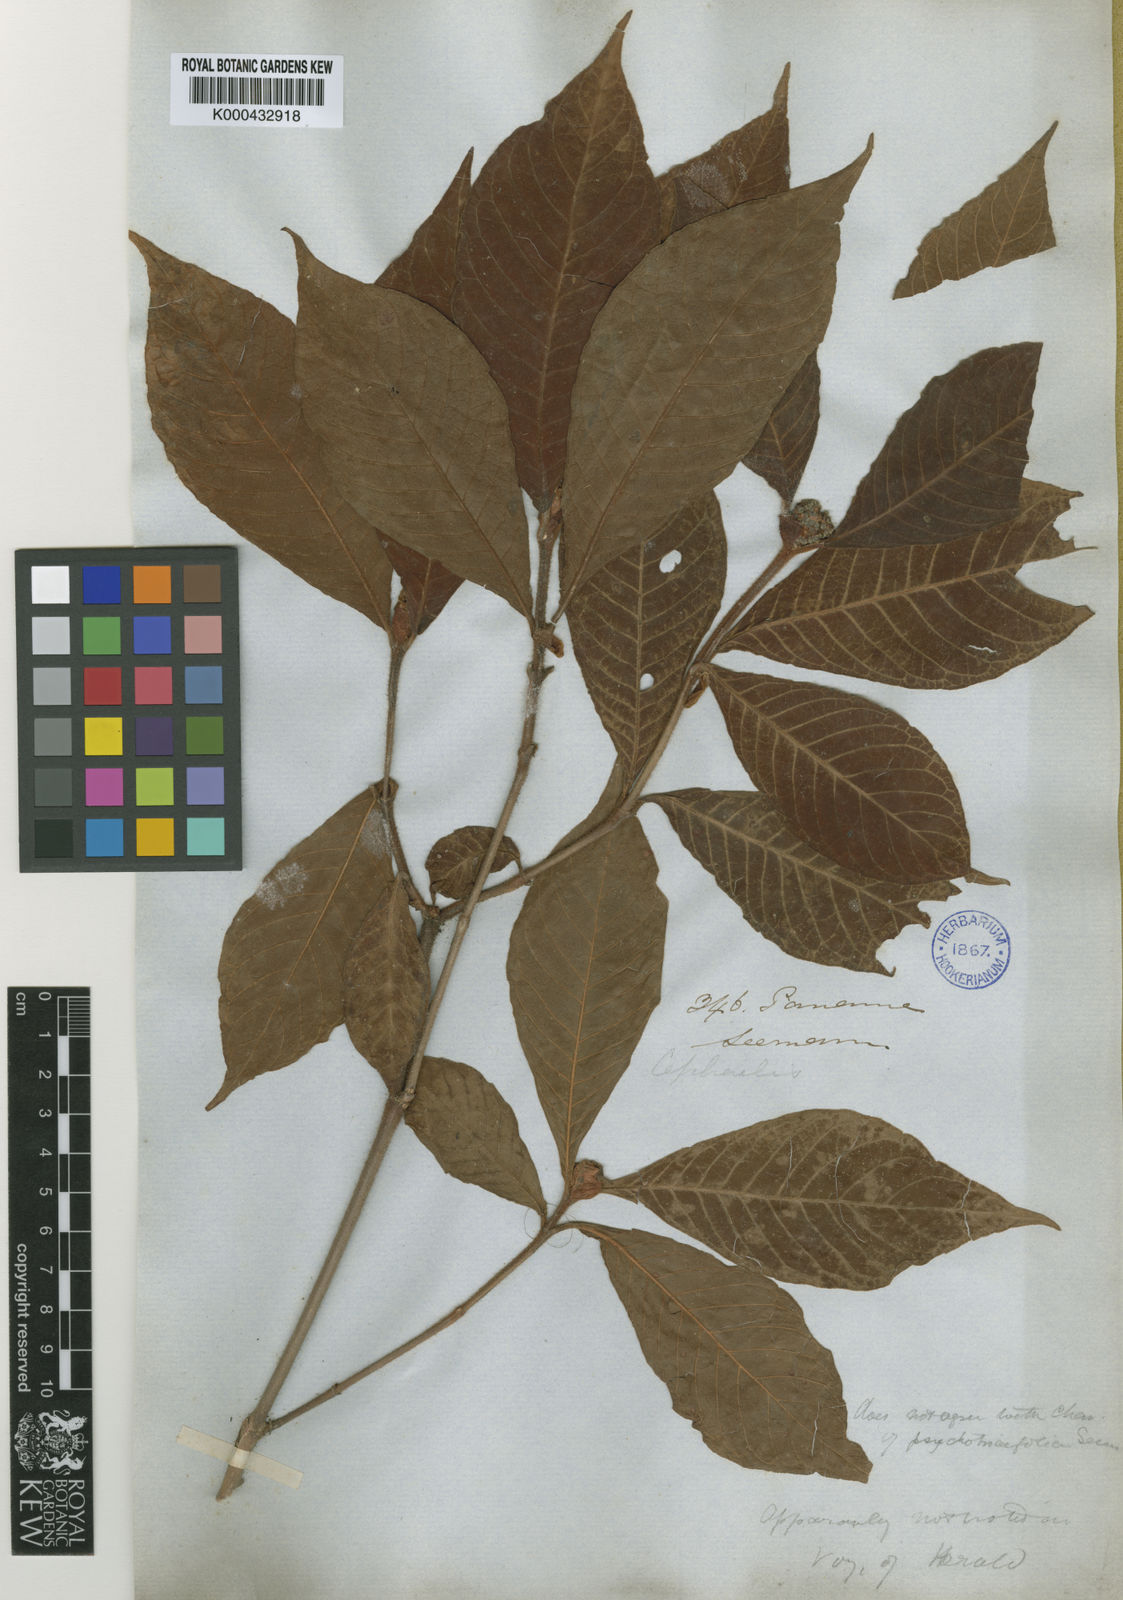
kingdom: Plantae
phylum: Tracheophyta
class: Magnoliopsida
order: Gentianales
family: Rubiaceae
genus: Psychotria
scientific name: Psychotria psychotriifolia
